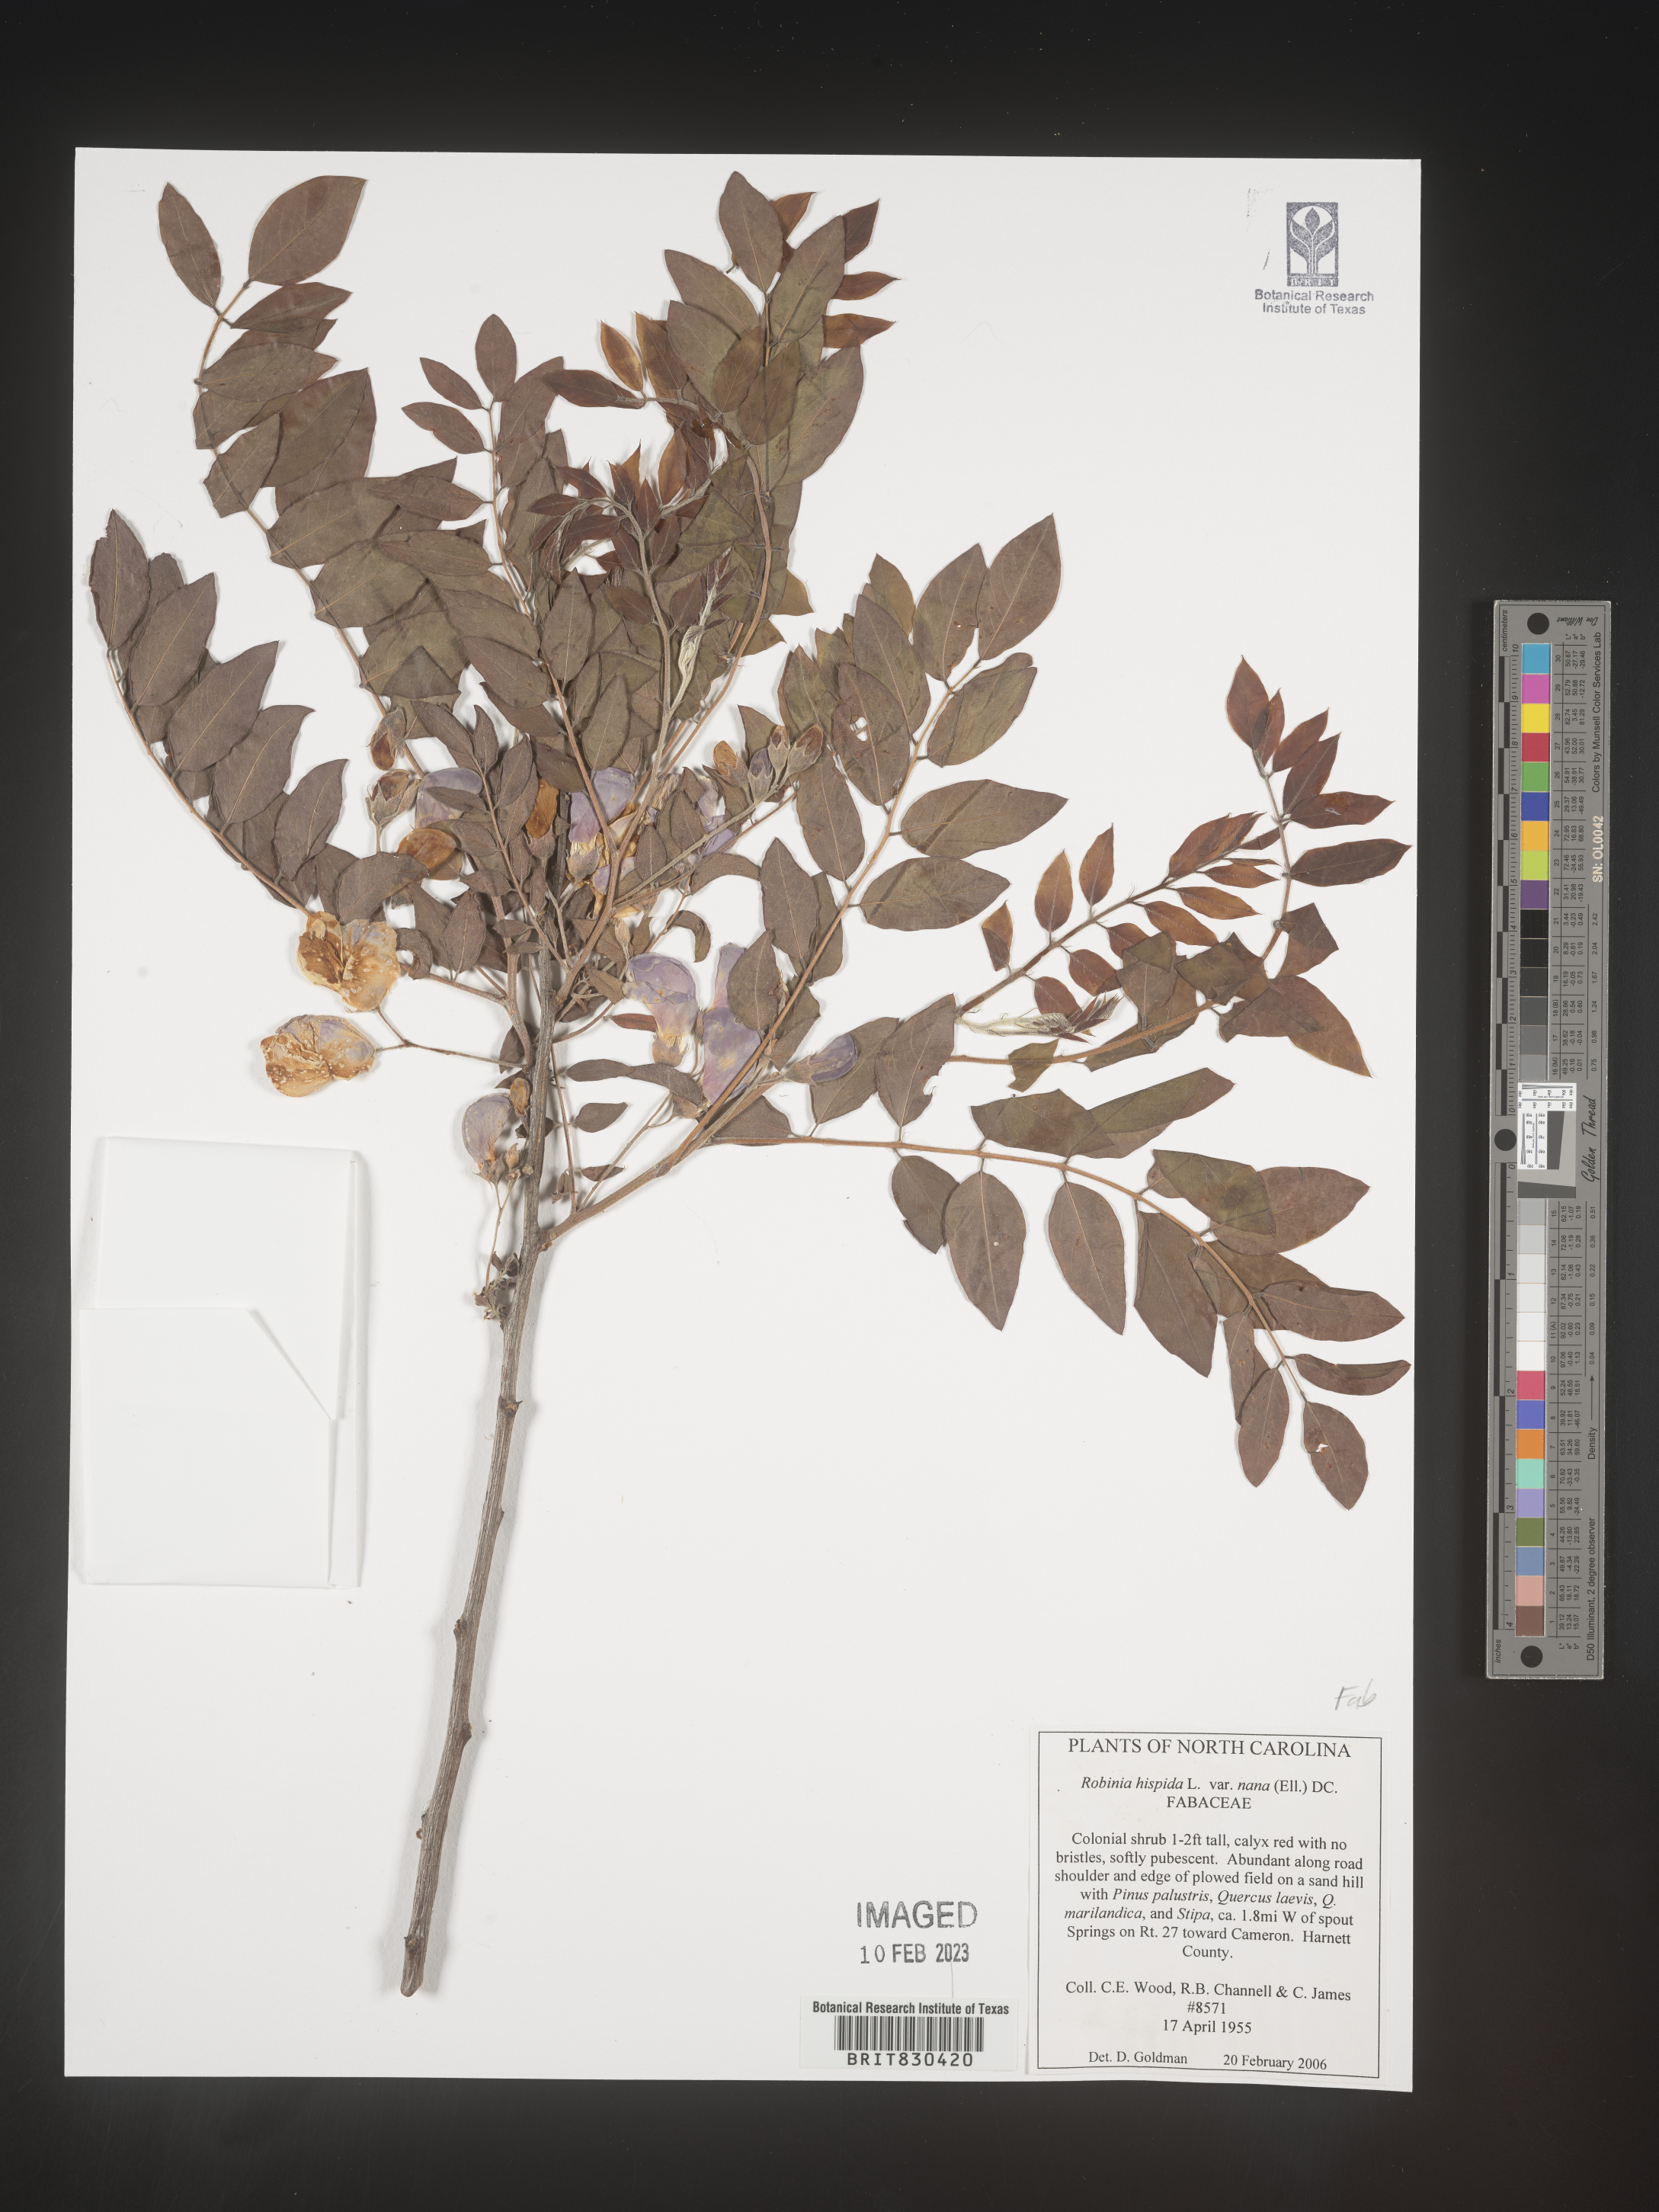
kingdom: Plantae
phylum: Tracheophyta
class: Magnoliopsida
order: Fabales
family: Fabaceae
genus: Robinia
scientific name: Robinia hispida
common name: Bristly locust
